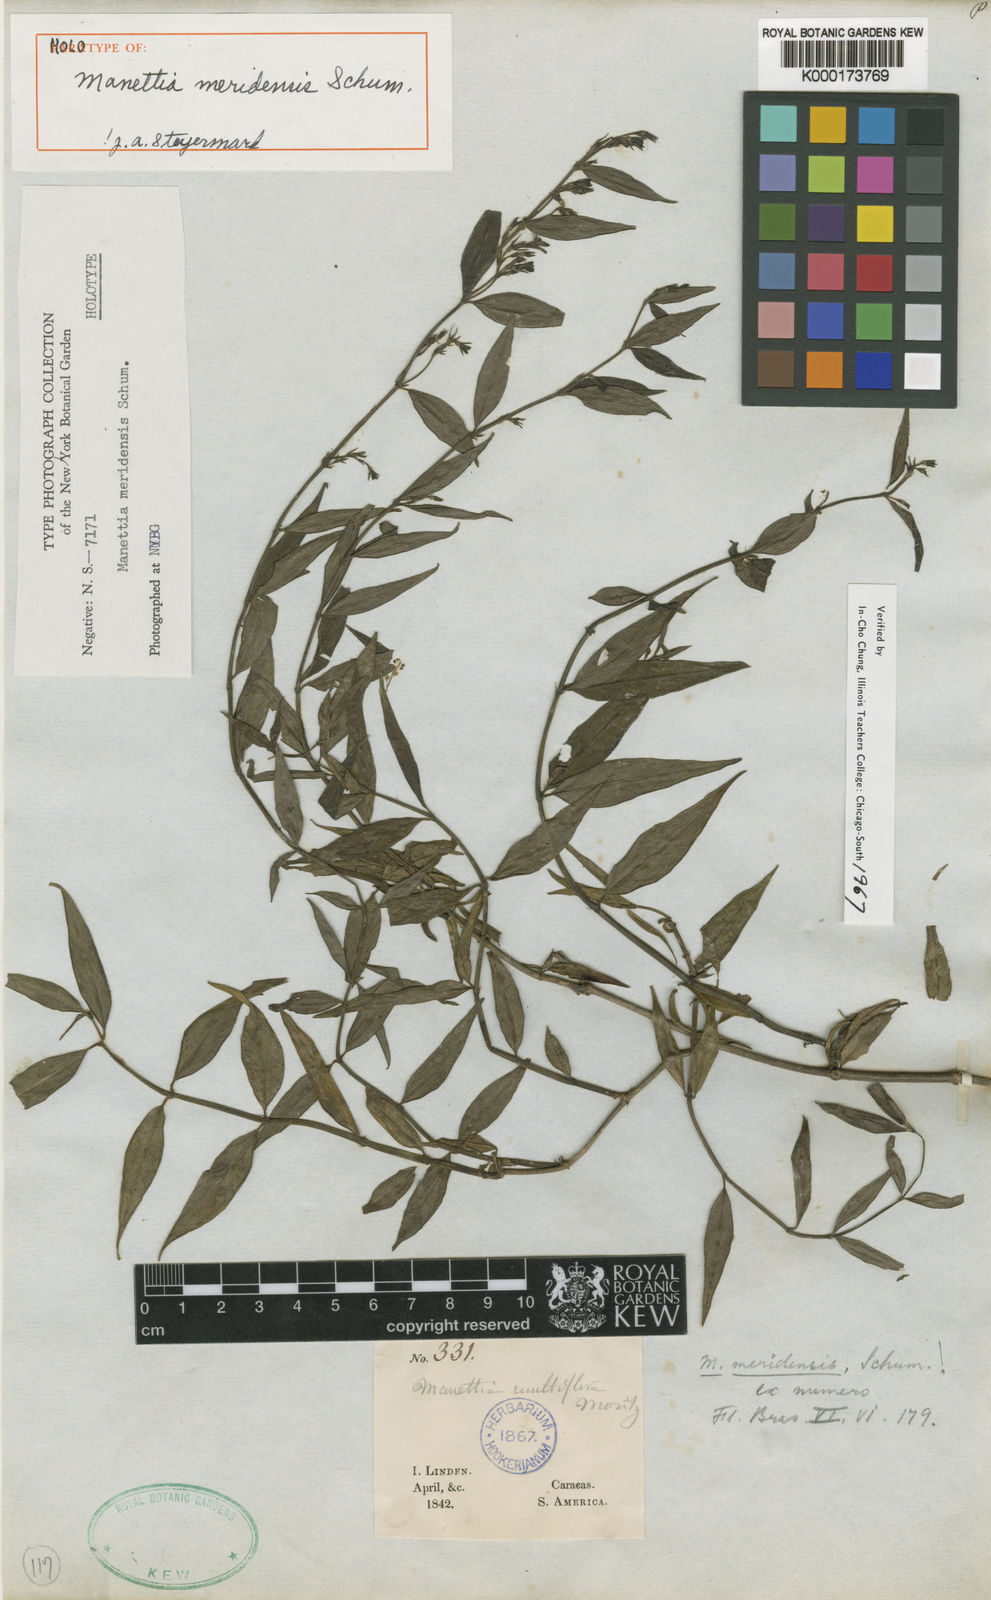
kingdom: Plantae
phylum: Tracheophyta
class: Magnoliopsida
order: Gentianales
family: Rubiaceae
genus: Manettia
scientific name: Manettia meridensis
